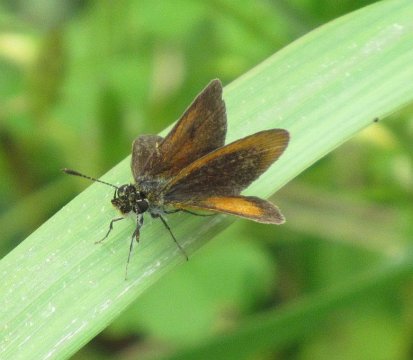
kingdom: Animalia
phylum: Arthropoda
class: Insecta
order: Lepidoptera
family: Hesperiidae
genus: Ancyloxypha
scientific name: Ancyloxypha numitor
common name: Least Skipper
